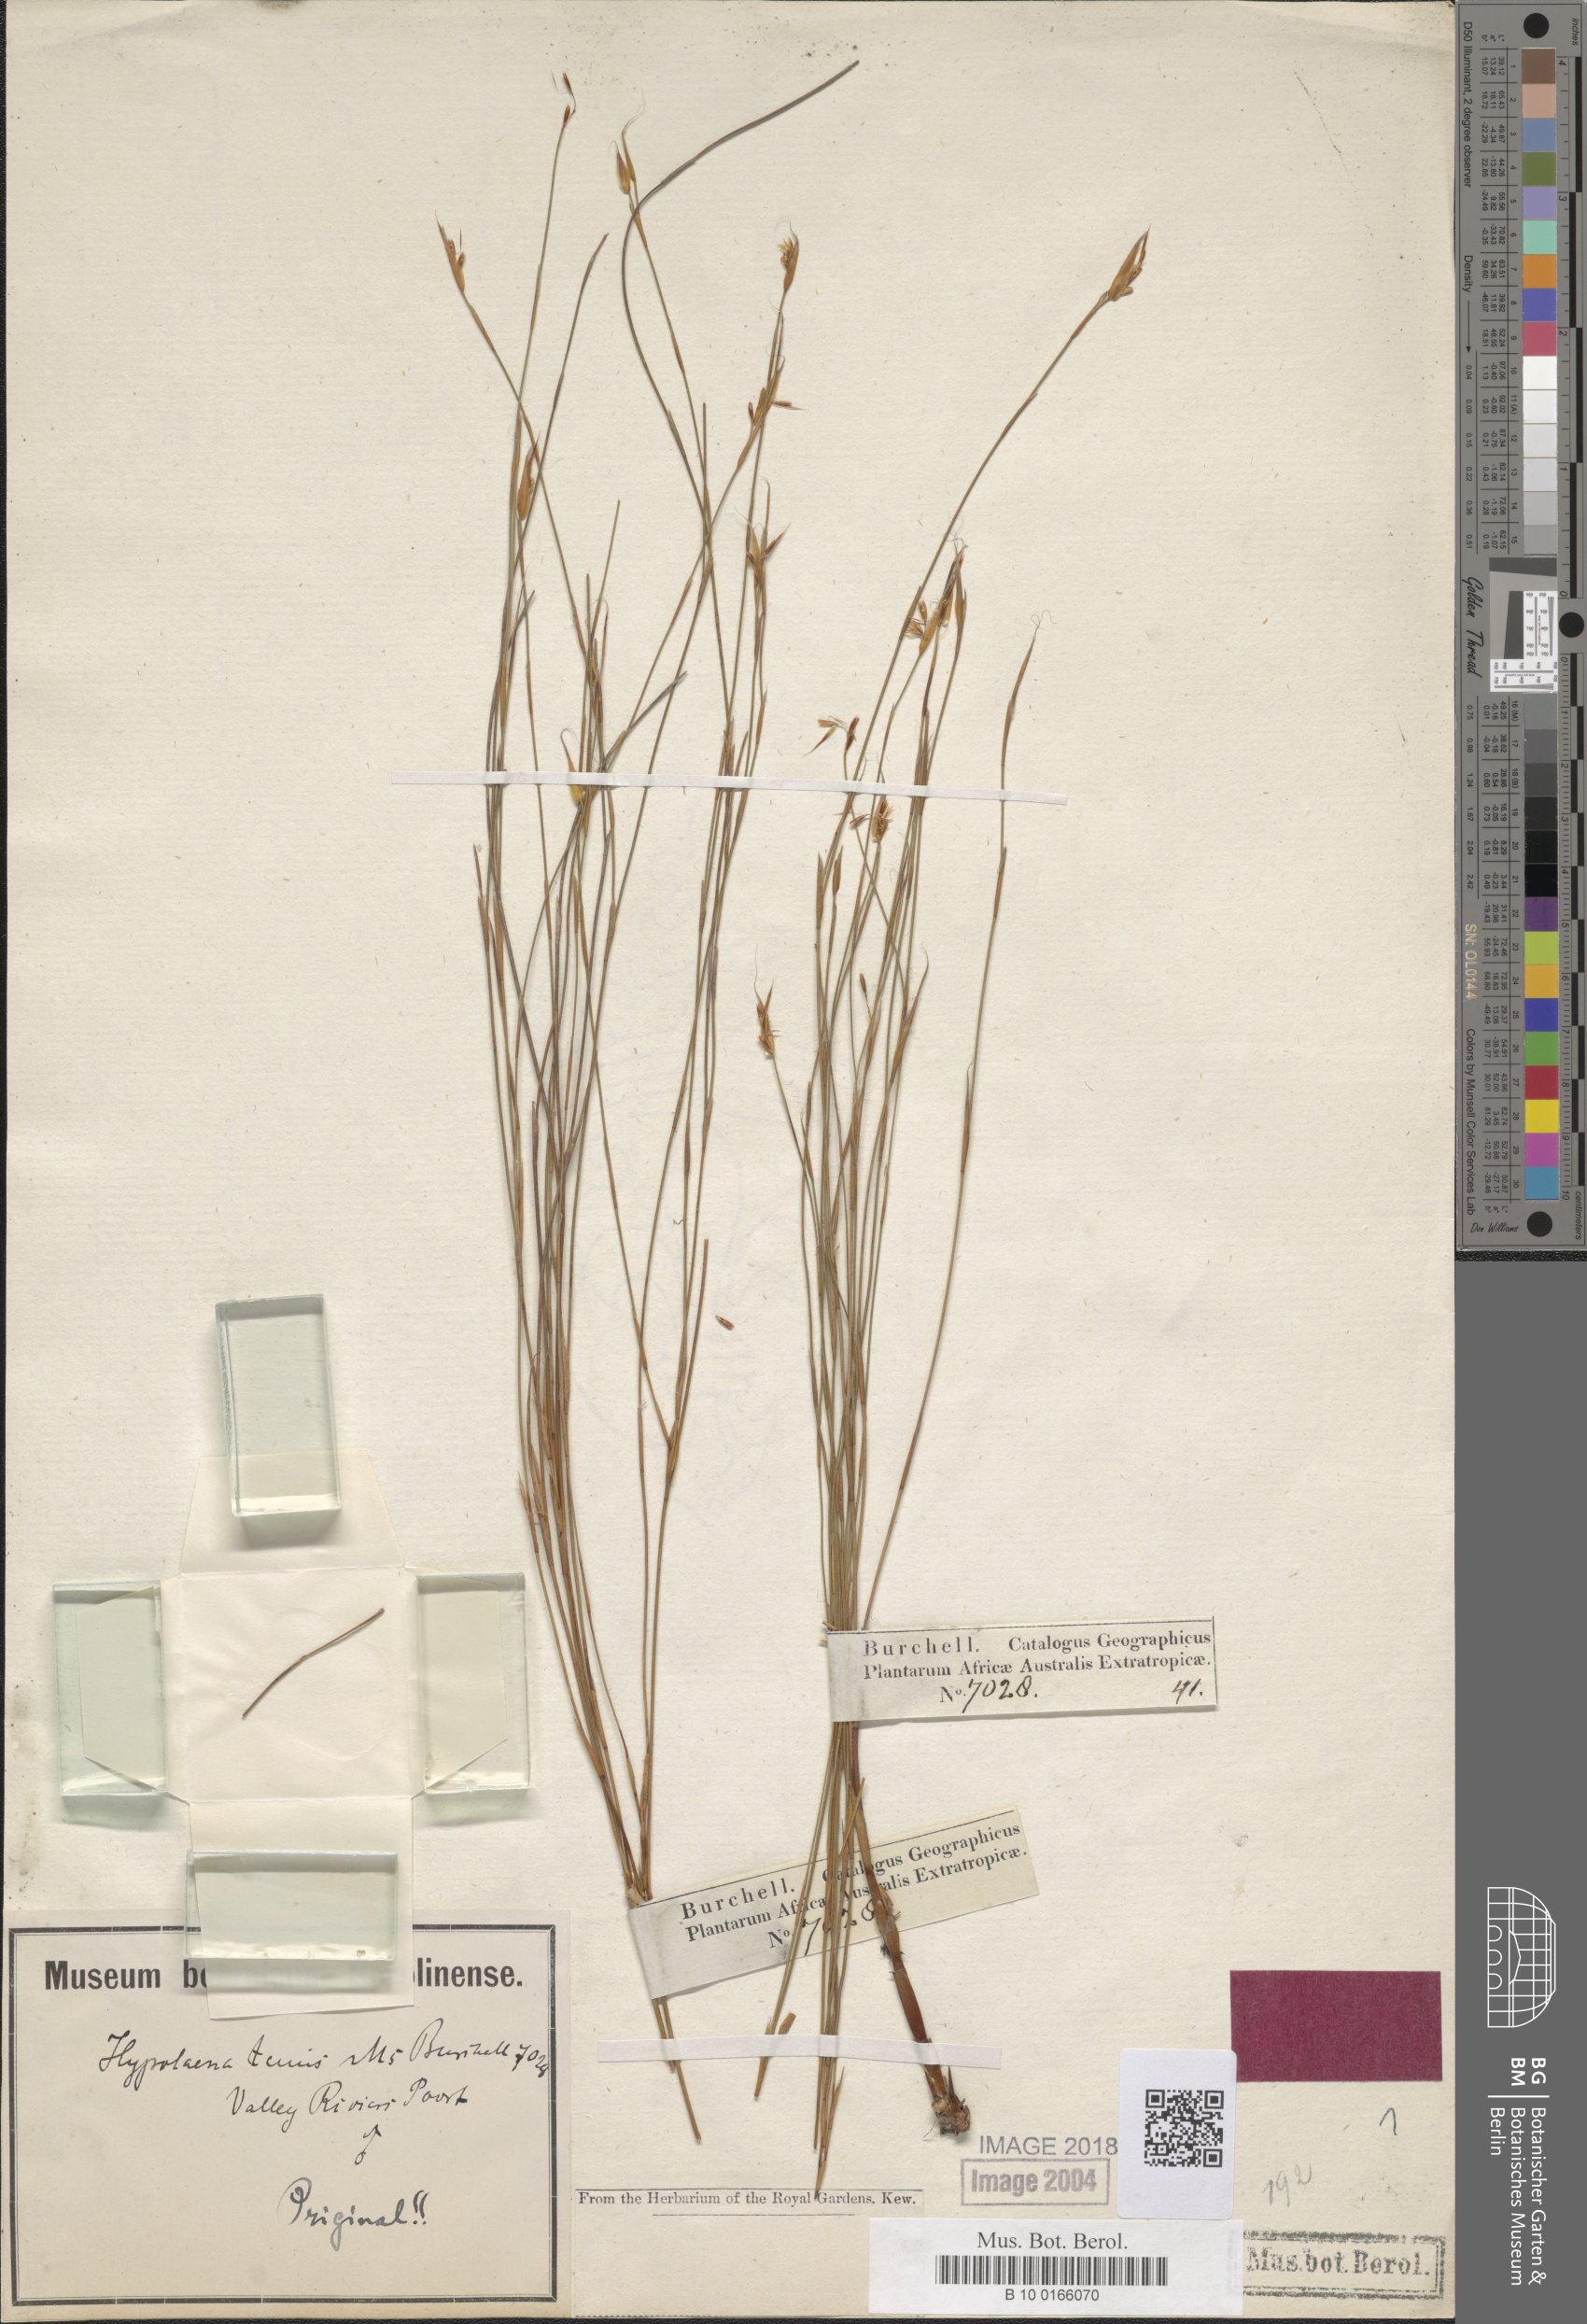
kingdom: Plantae
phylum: Tracheophyta
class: Liliopsida
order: Poales
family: Restionaceae
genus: Anthochortus
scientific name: Anthochortus ecklonii
